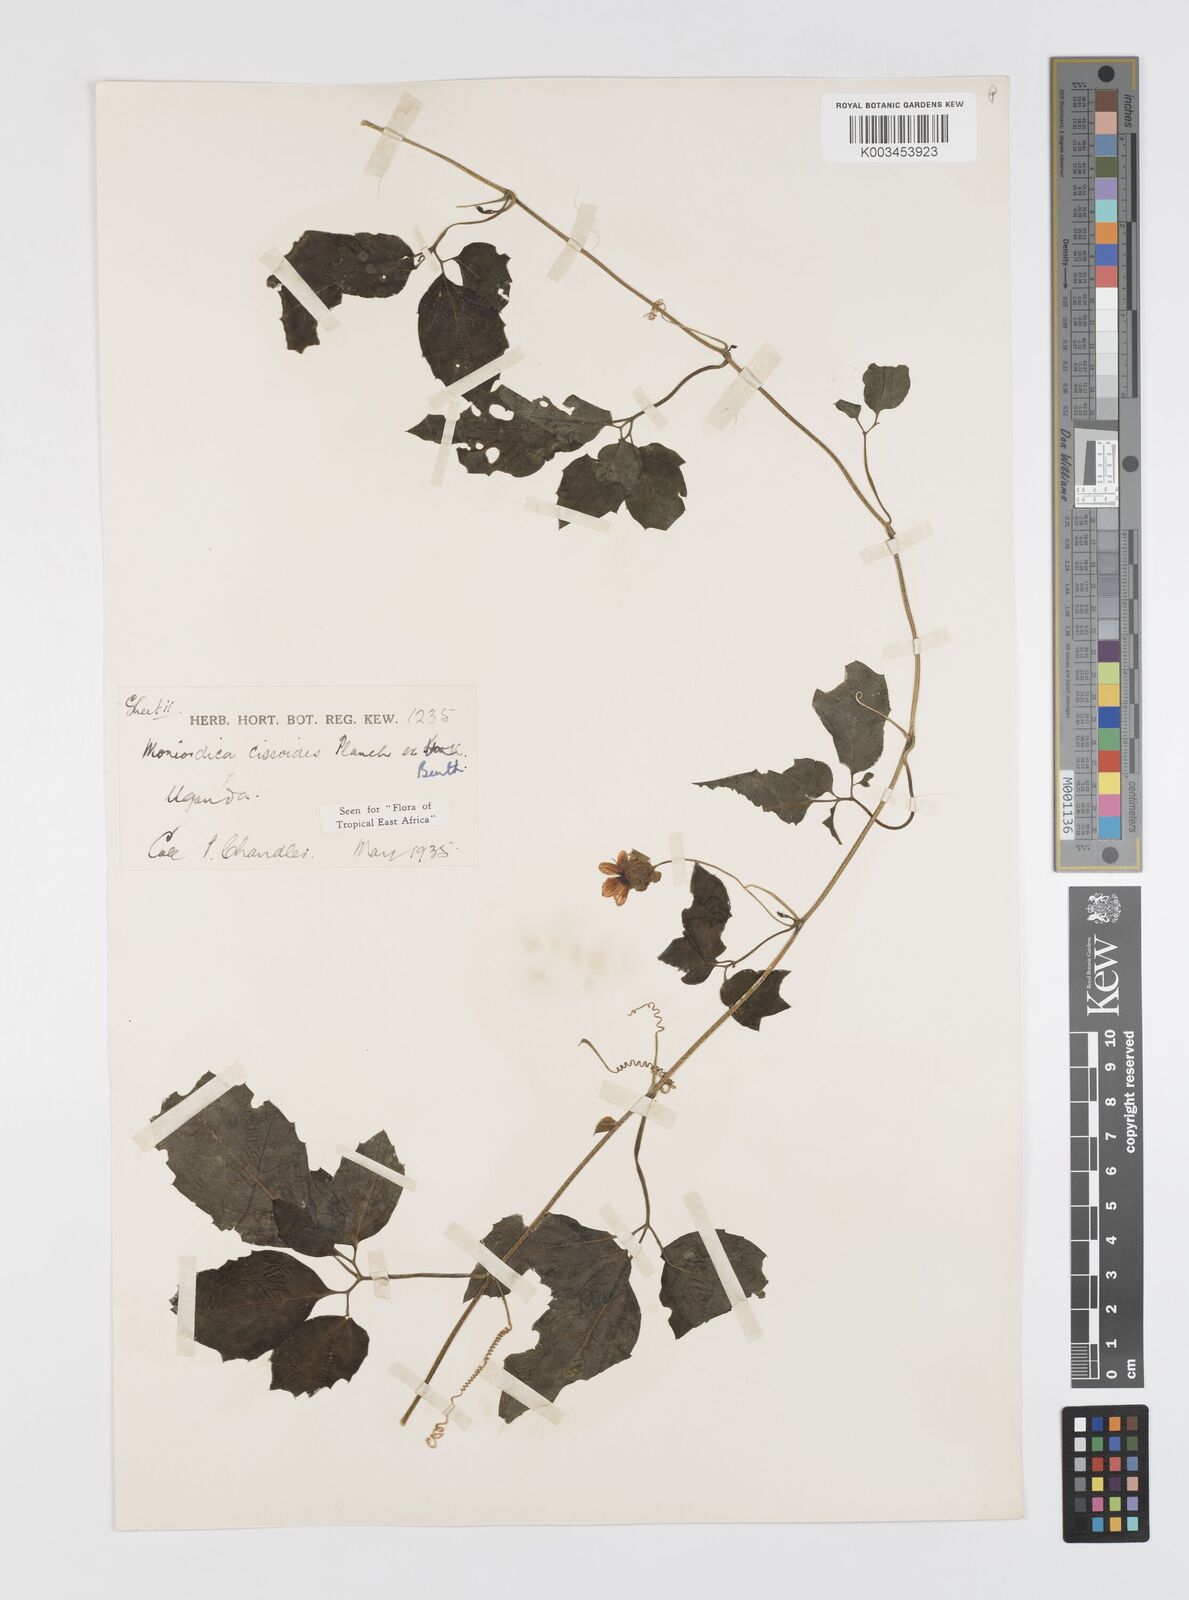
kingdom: Plantae
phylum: Tracheophyta
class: Magnoliopsida
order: Cucurbitales
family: Cucurbitaceae
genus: Momordica
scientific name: Momordica cissoides
